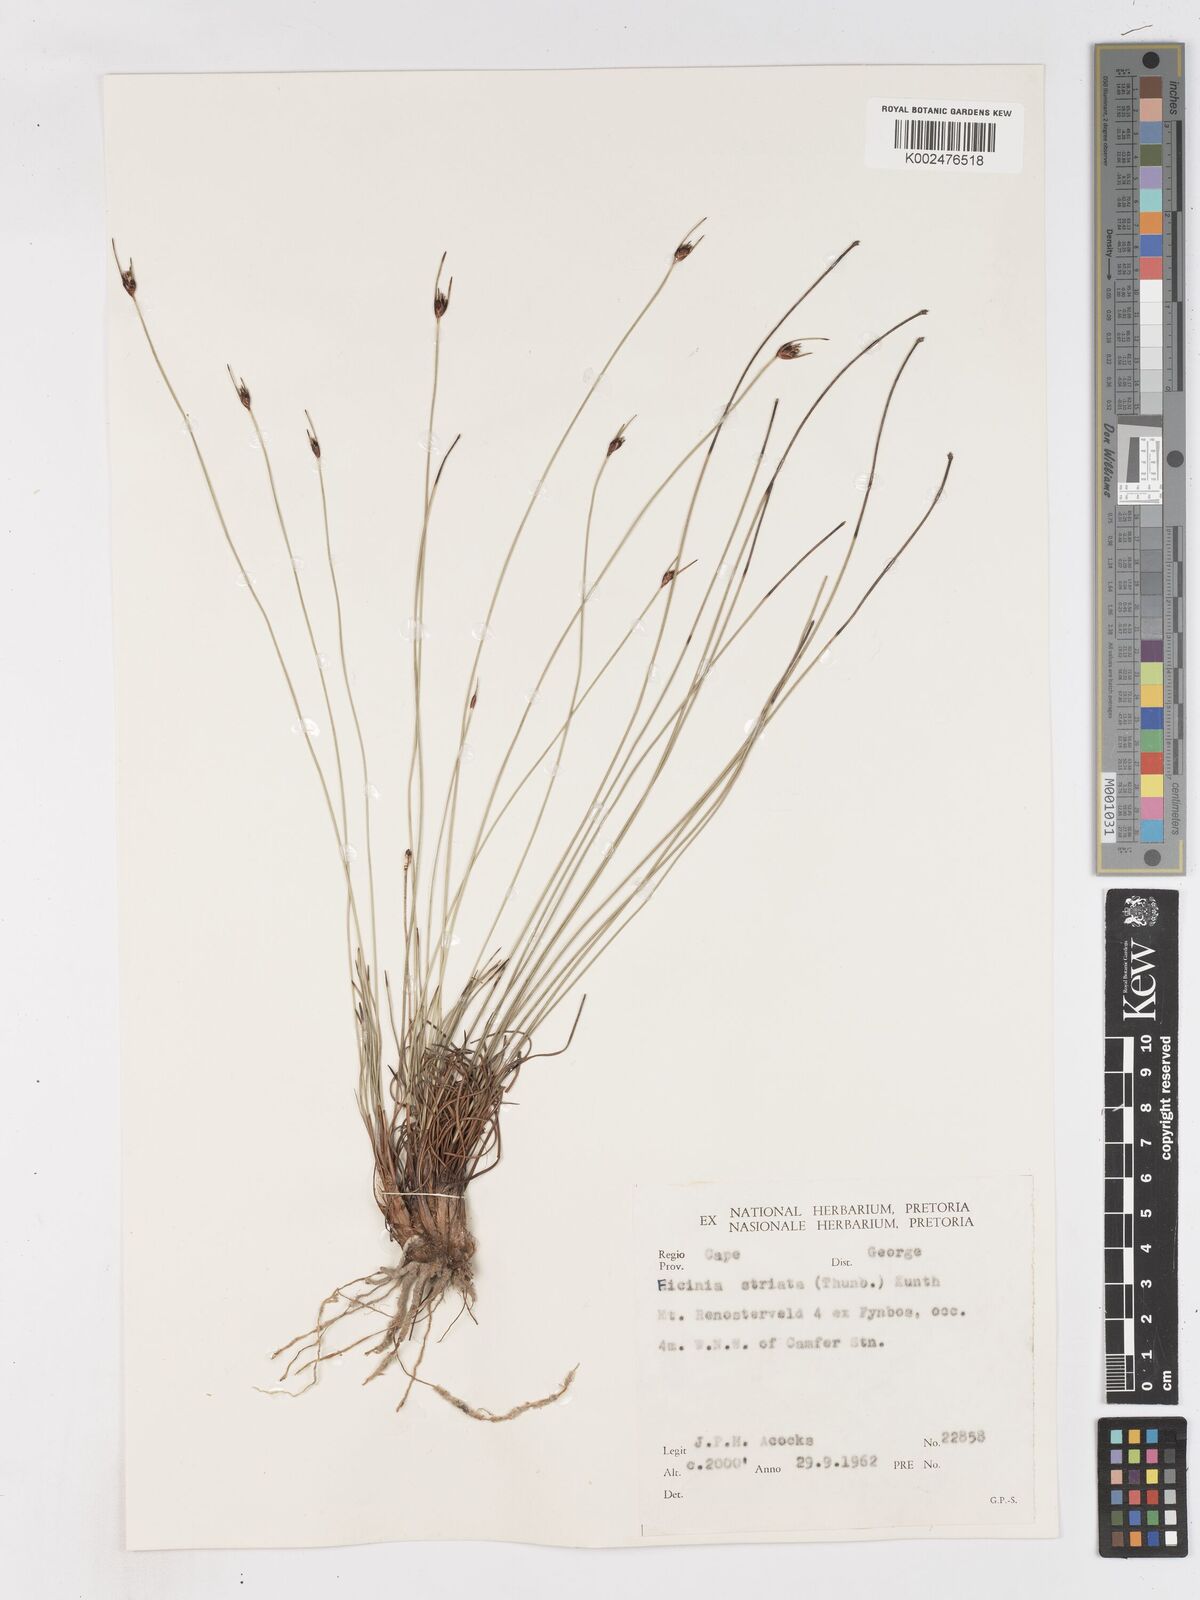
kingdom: Plantae
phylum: Tracheophyta
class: Liliopsida
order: Poales
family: Cyperaceae
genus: Ficinia
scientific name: Ficinia dunensis
